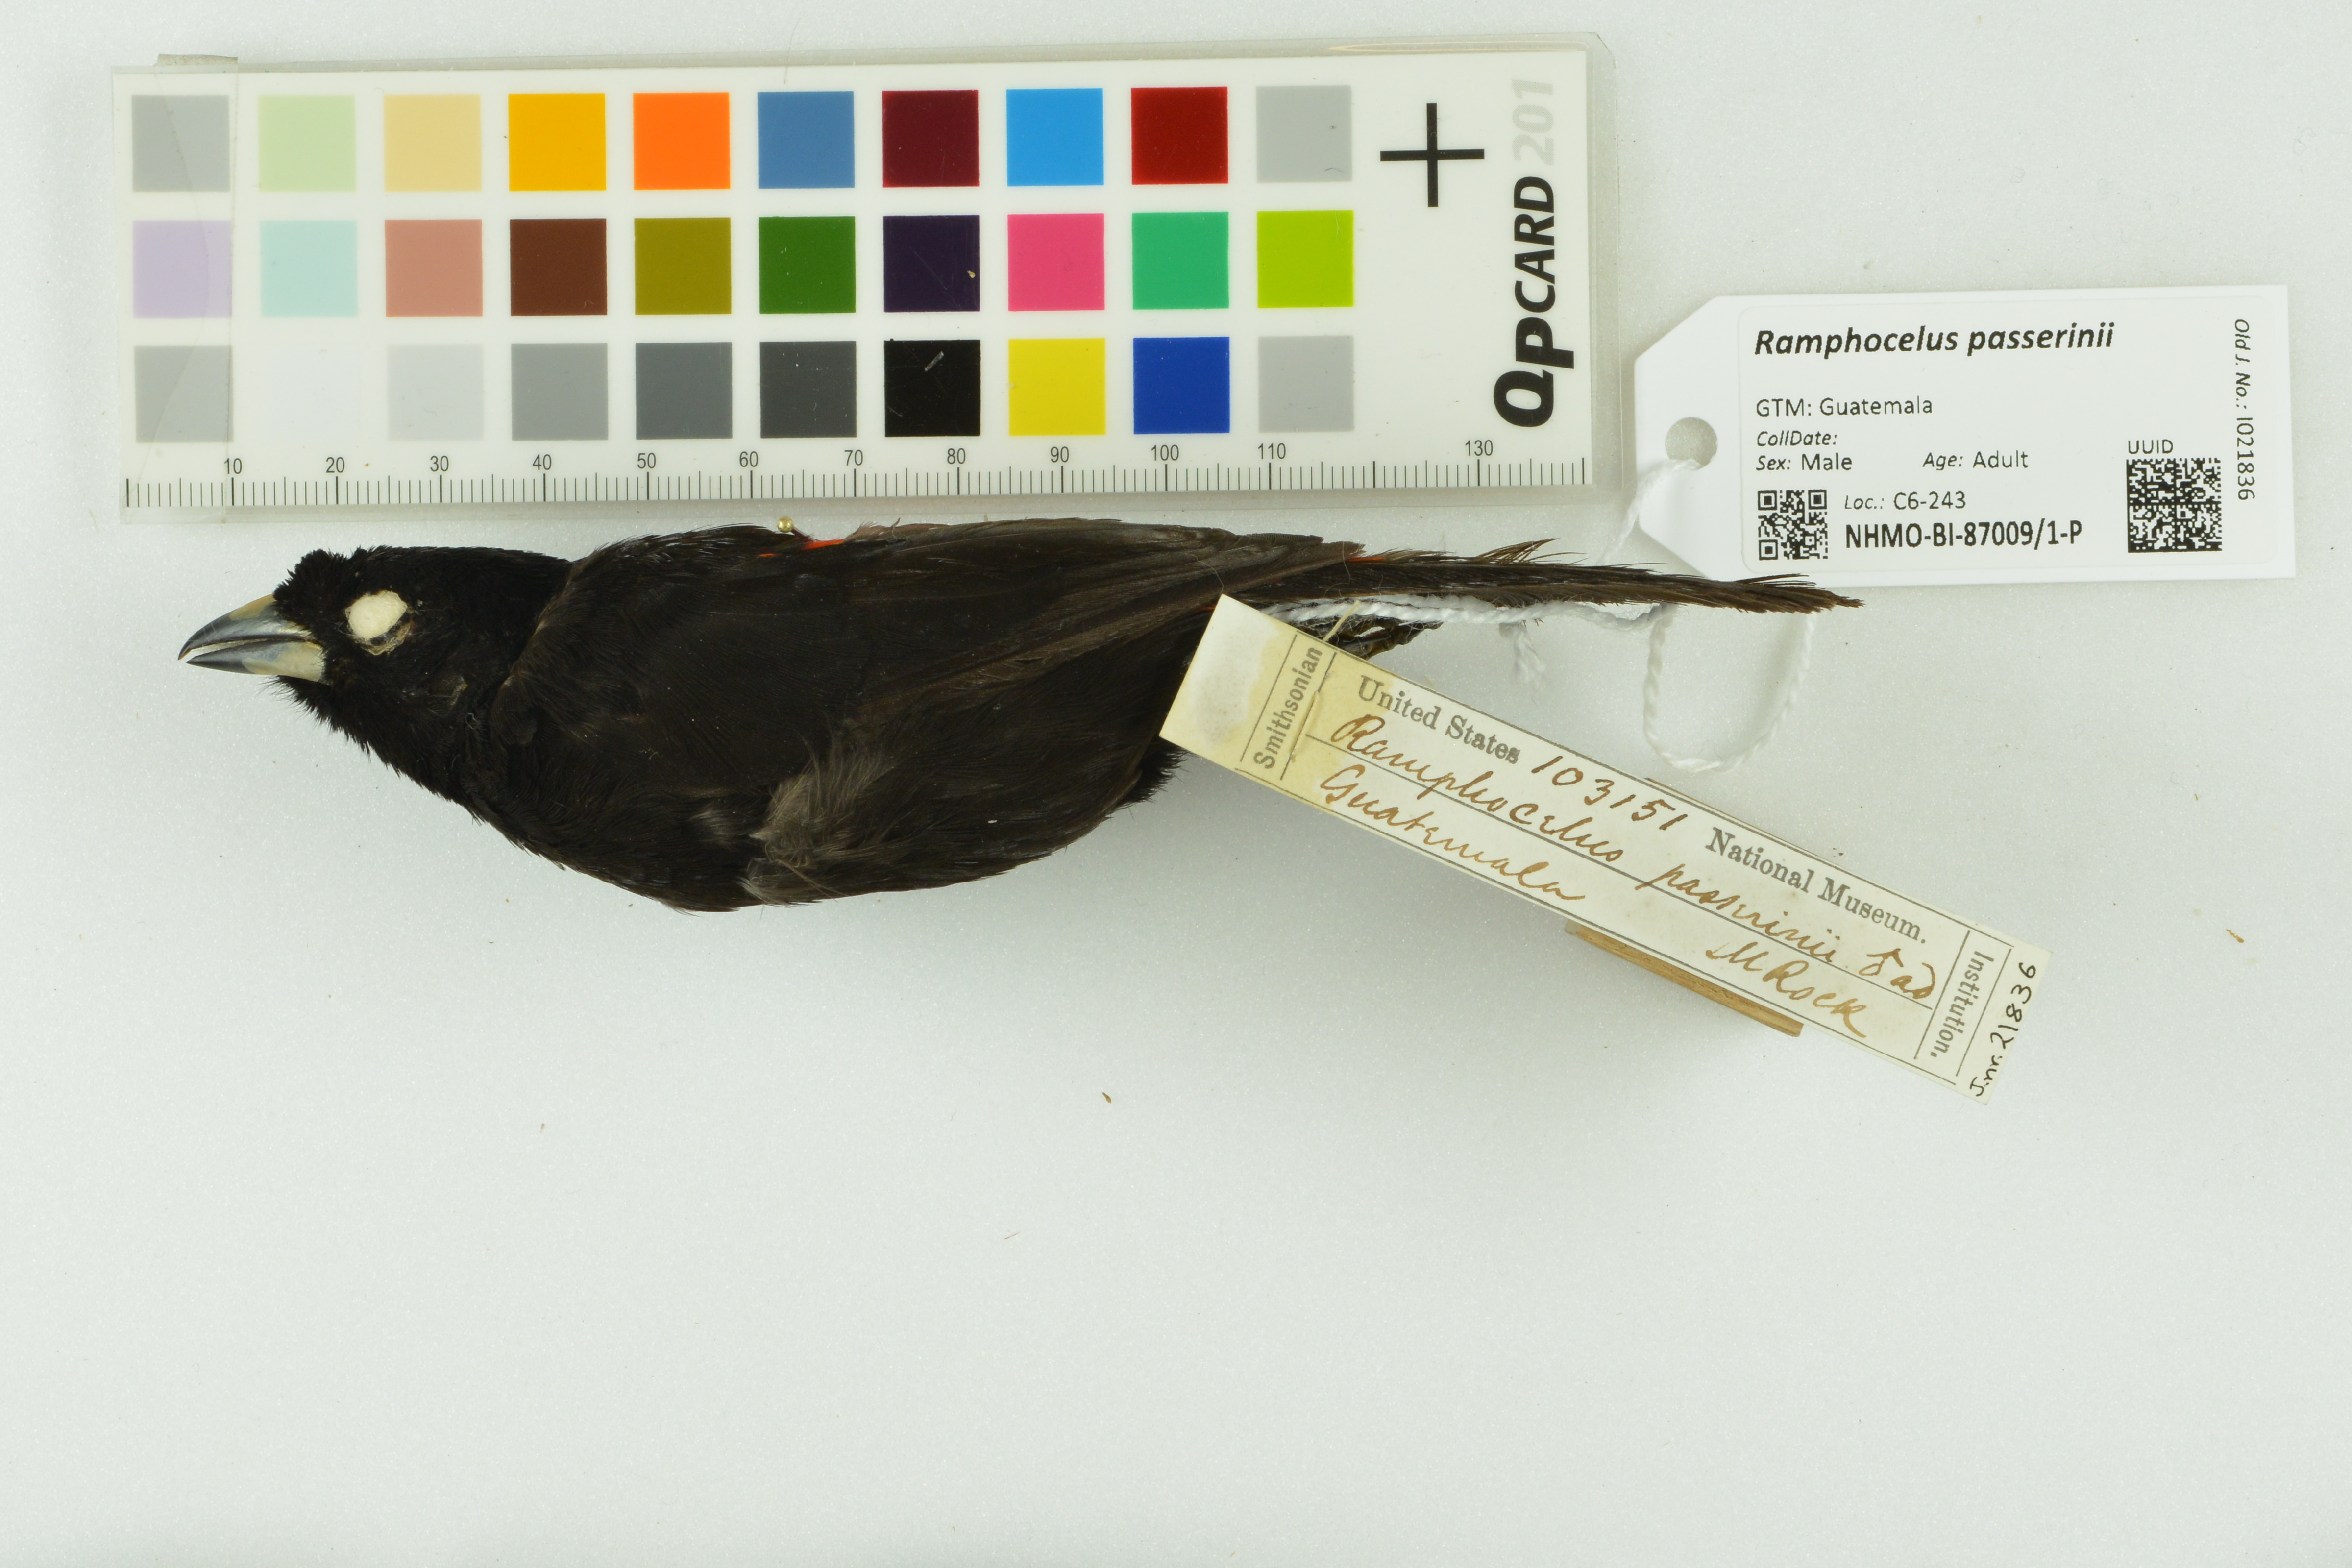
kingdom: Animalia
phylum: Chordata
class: Aves
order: Passeriformes
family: Thraupidae
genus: Ramphocelus
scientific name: Ramphocelus passerinii
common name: Passerini's tanager
